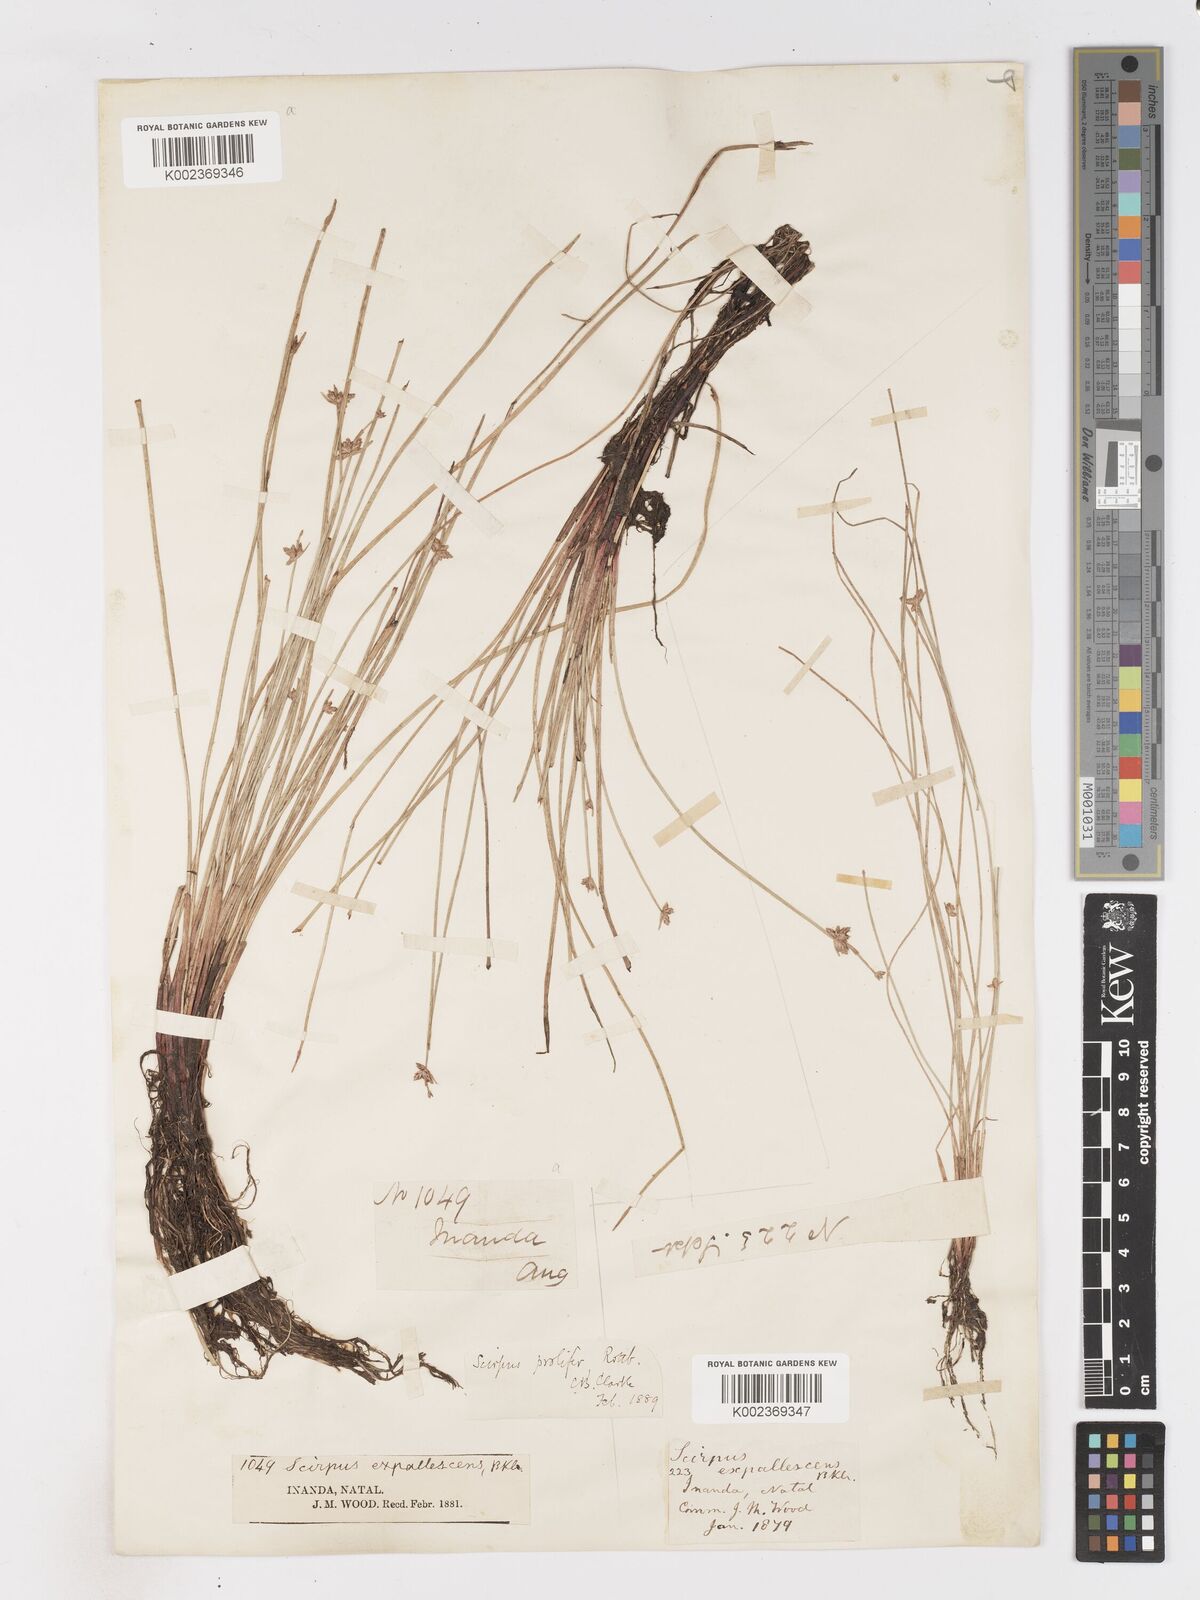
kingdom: Plantae
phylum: Tracheophyta
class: Liliopsida
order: Poales
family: Cyperaceae
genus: Isolepis
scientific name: Isolepis prolifera
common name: Proliferating bulrush
